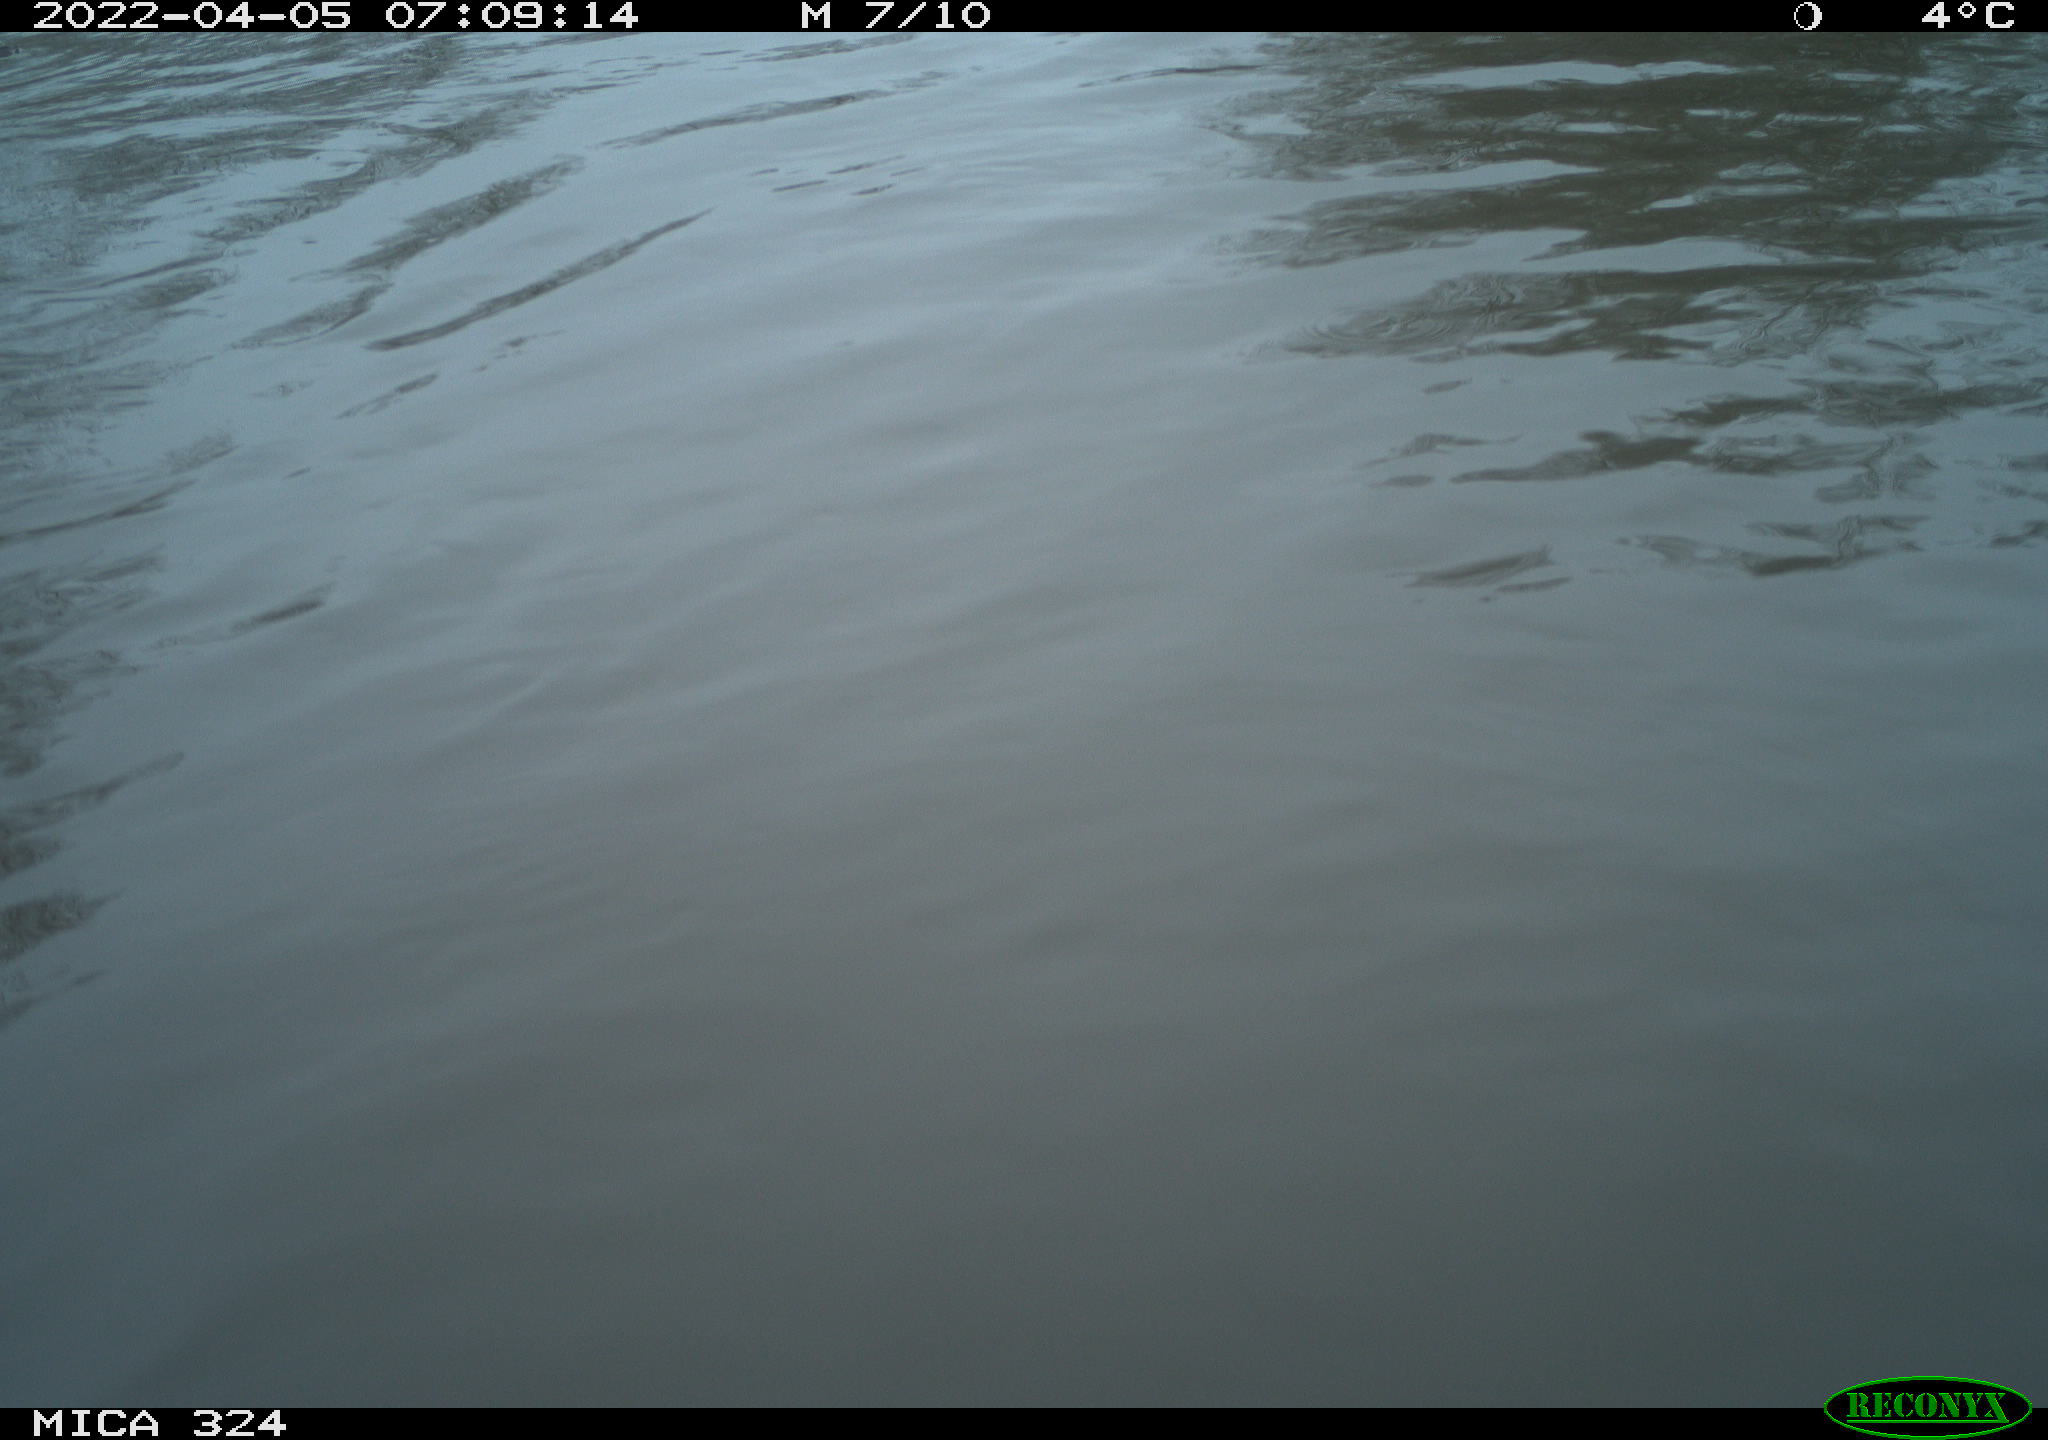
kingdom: Animalia
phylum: Chordata
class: Mammalia
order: Rodentia
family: Cricetidae
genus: Ondatra
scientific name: Ondatra zibethicus
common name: Muskrat
